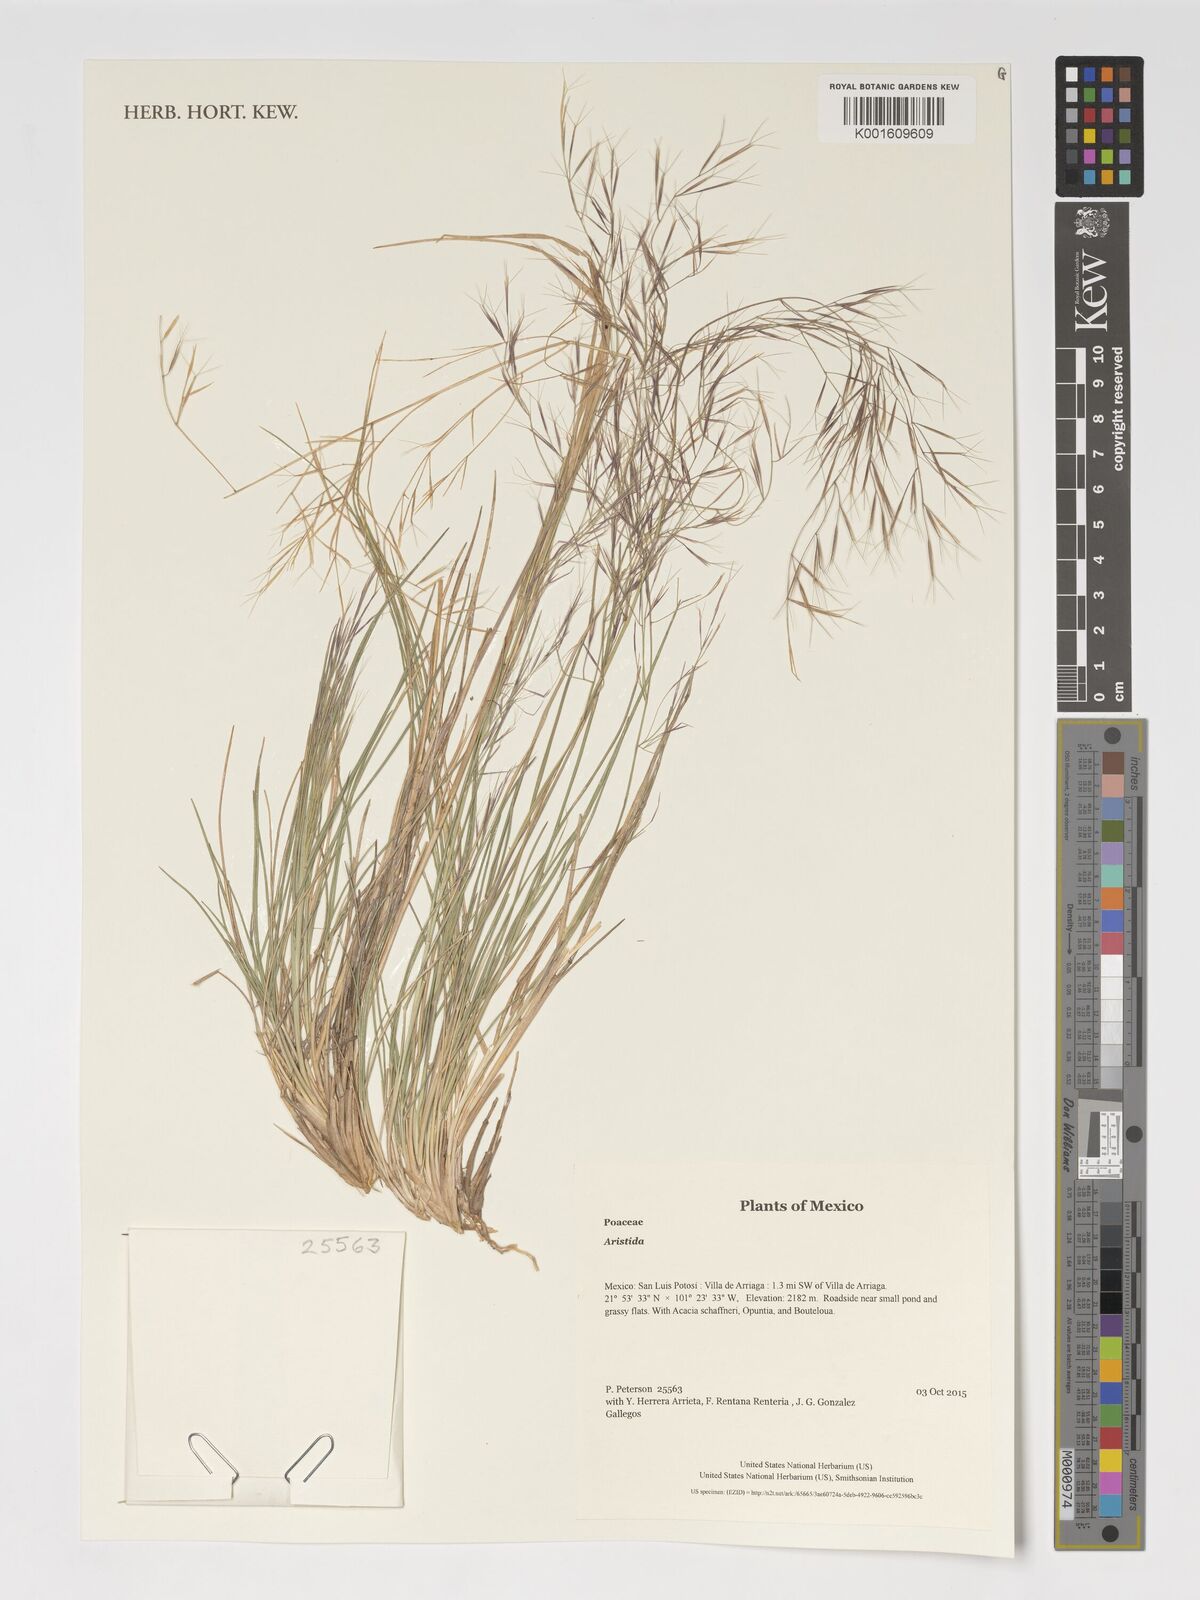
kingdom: Plantae
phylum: Tracheophyta
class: Liliopsida
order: Poales
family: Poaceae
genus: Aristida
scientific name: Aristida
